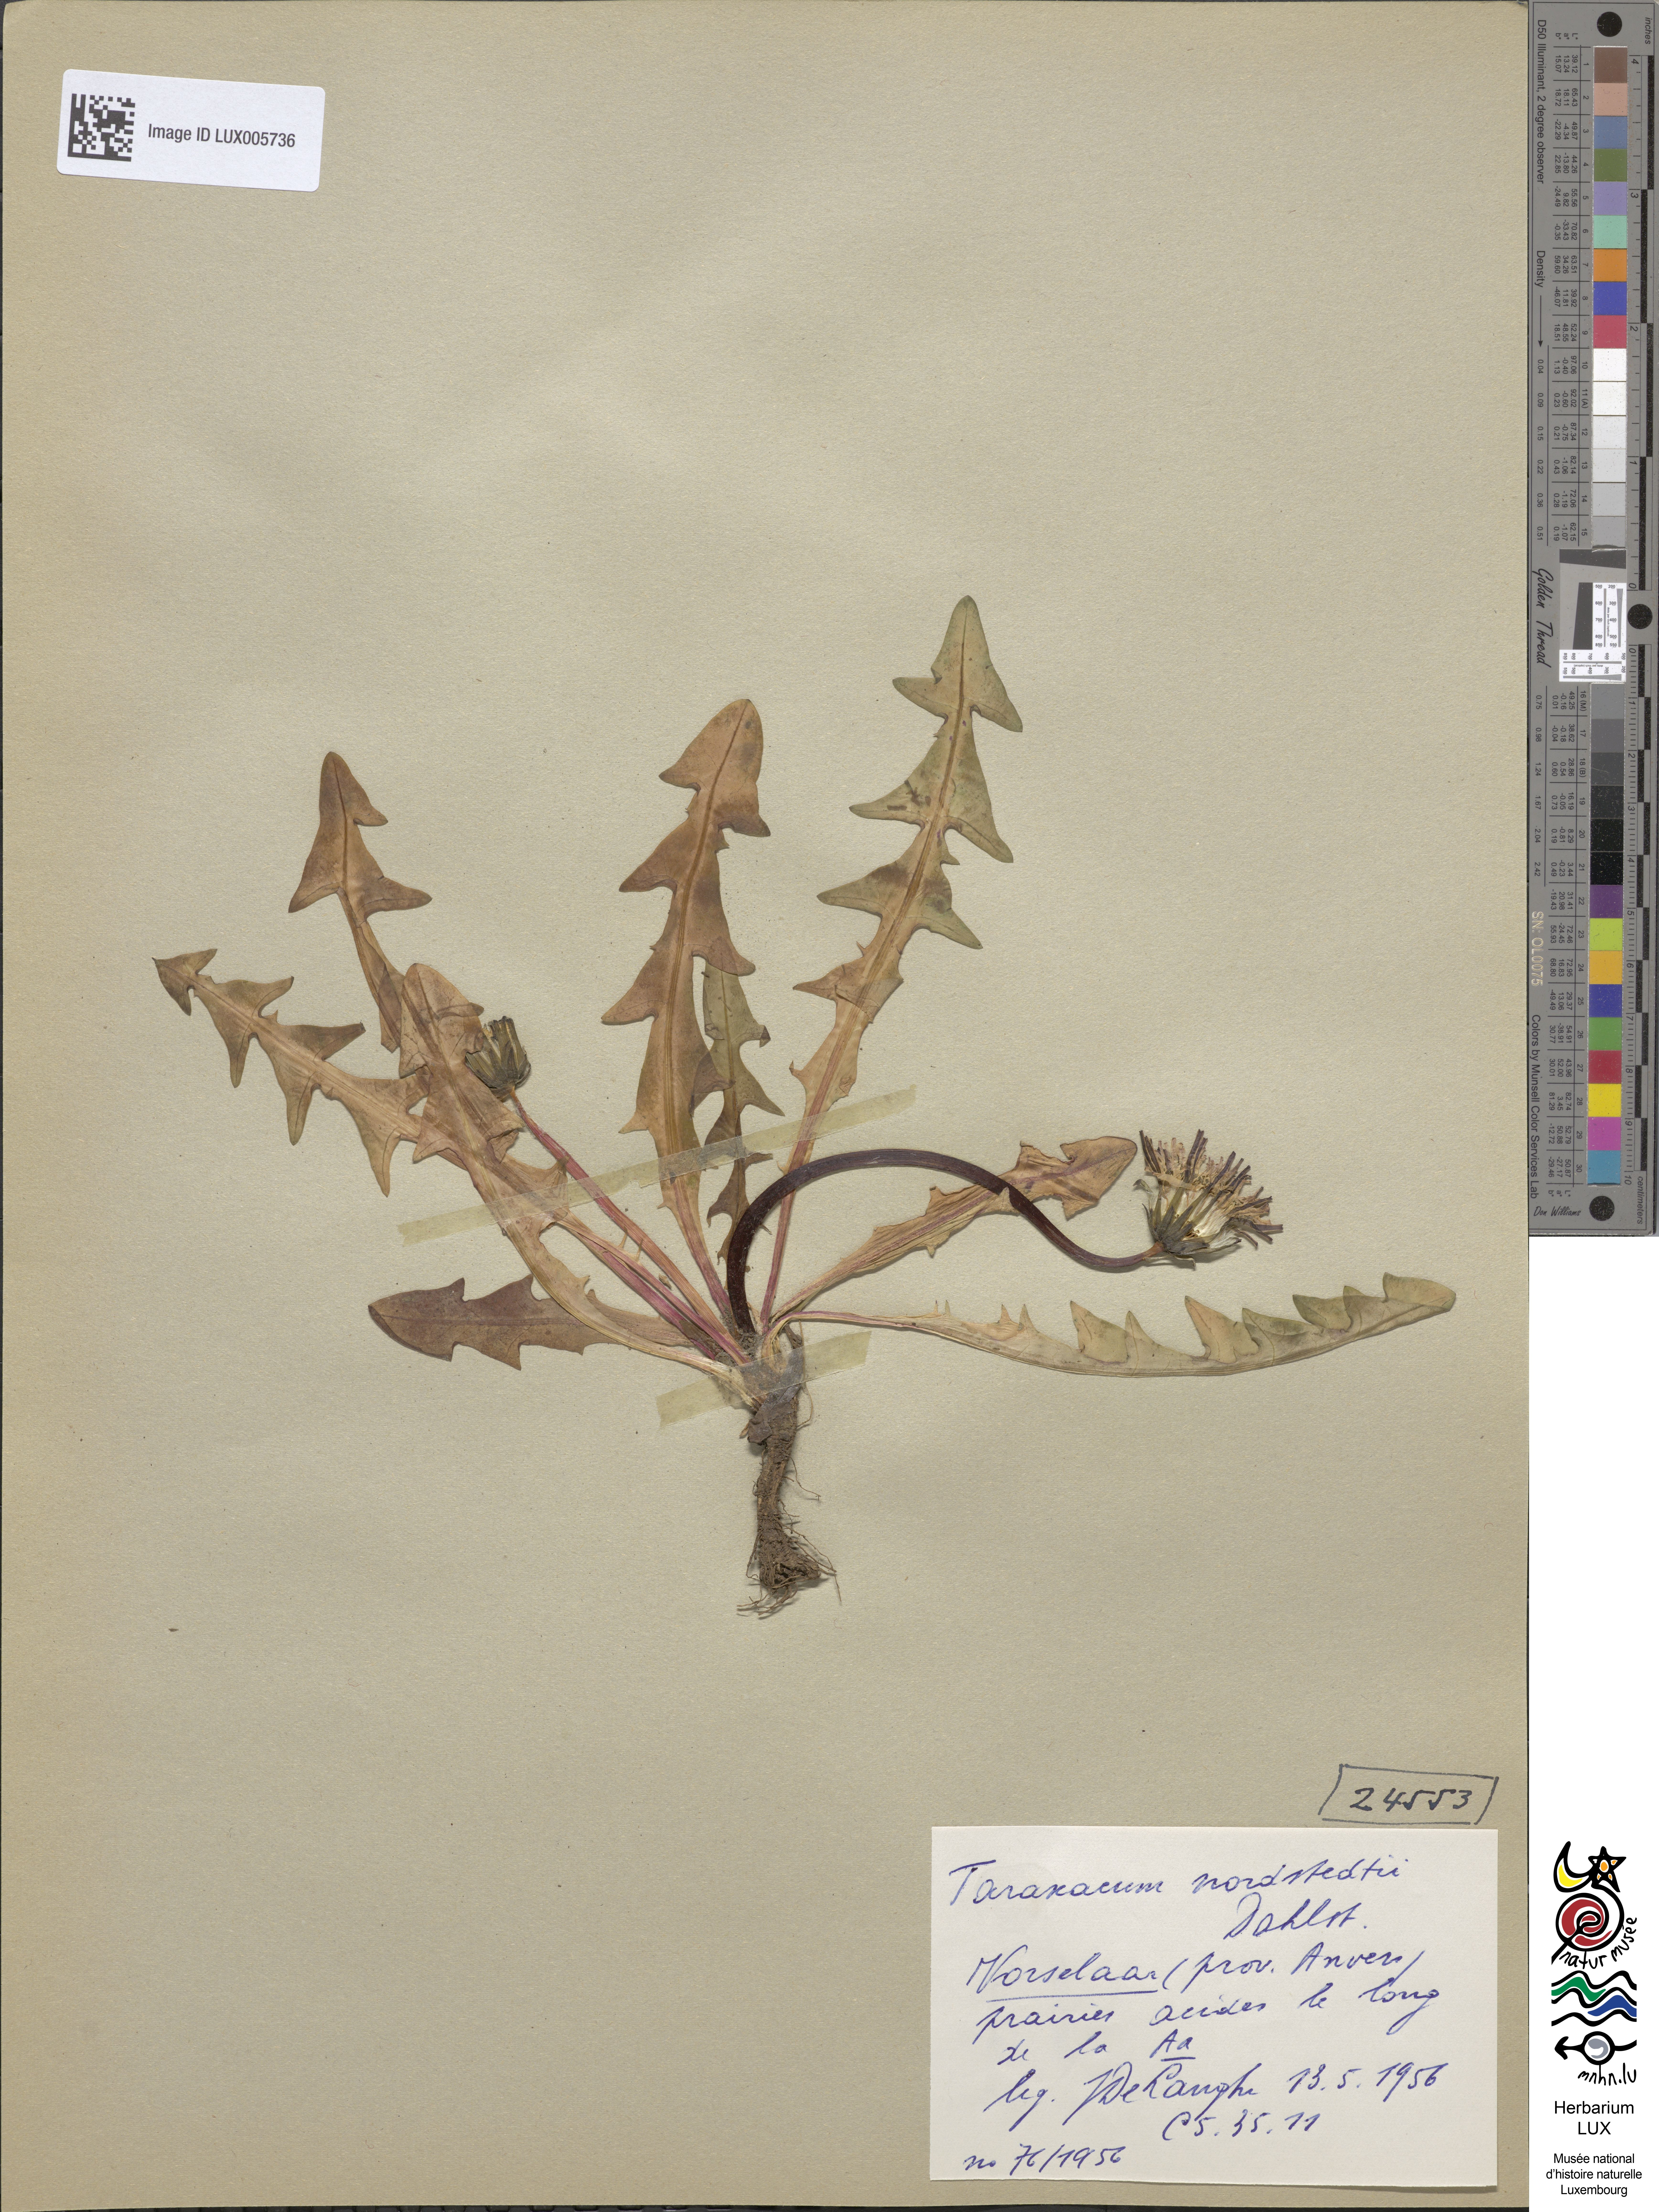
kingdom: Plantae
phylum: Tracheophyta
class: Magnoliopsida
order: Asterales
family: Asteraceae
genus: Taraxacum
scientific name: Taraxacum nordstedtii
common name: Nordstedt's dandelion
